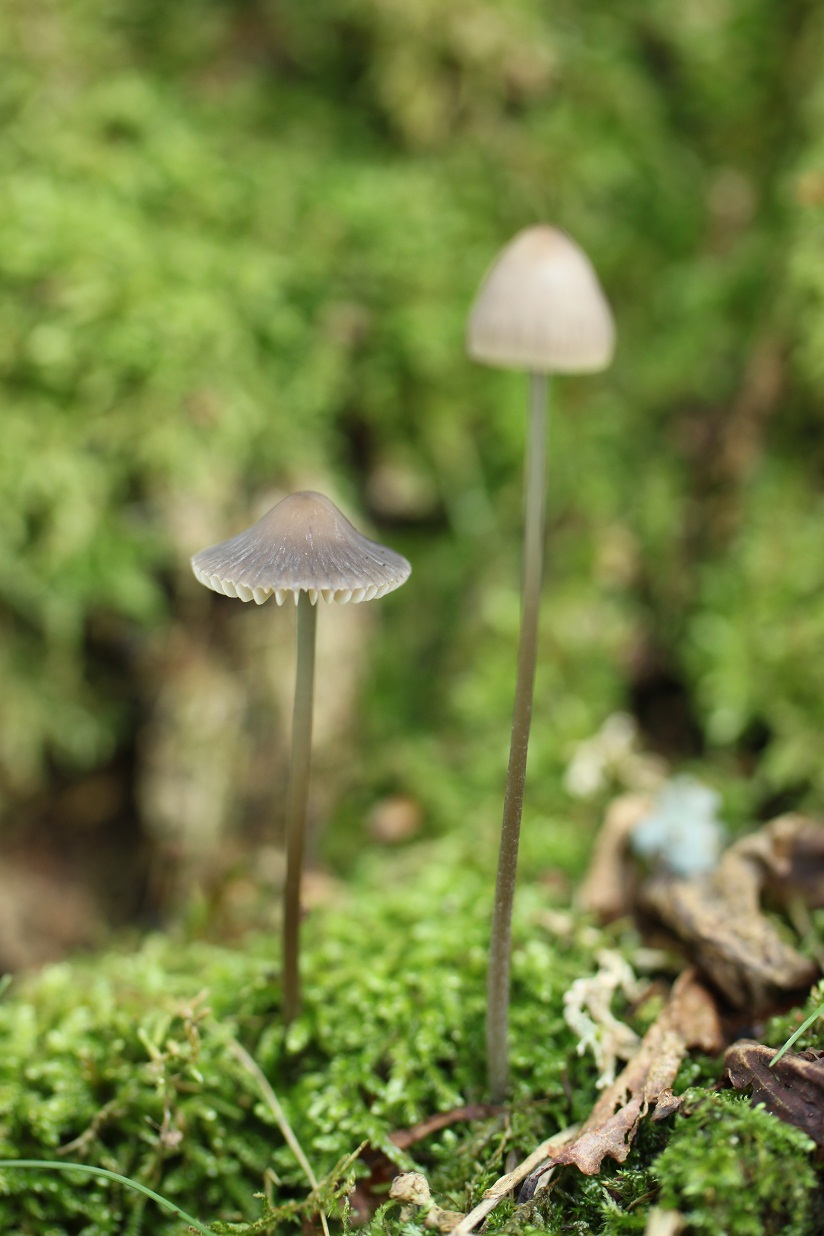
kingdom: Fungi
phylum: Basidiomycota
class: Agaricomycetes
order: Agaricales
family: Mycenaceae
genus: Mycena
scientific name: Mycena polygramma
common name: Grooved bonnet
